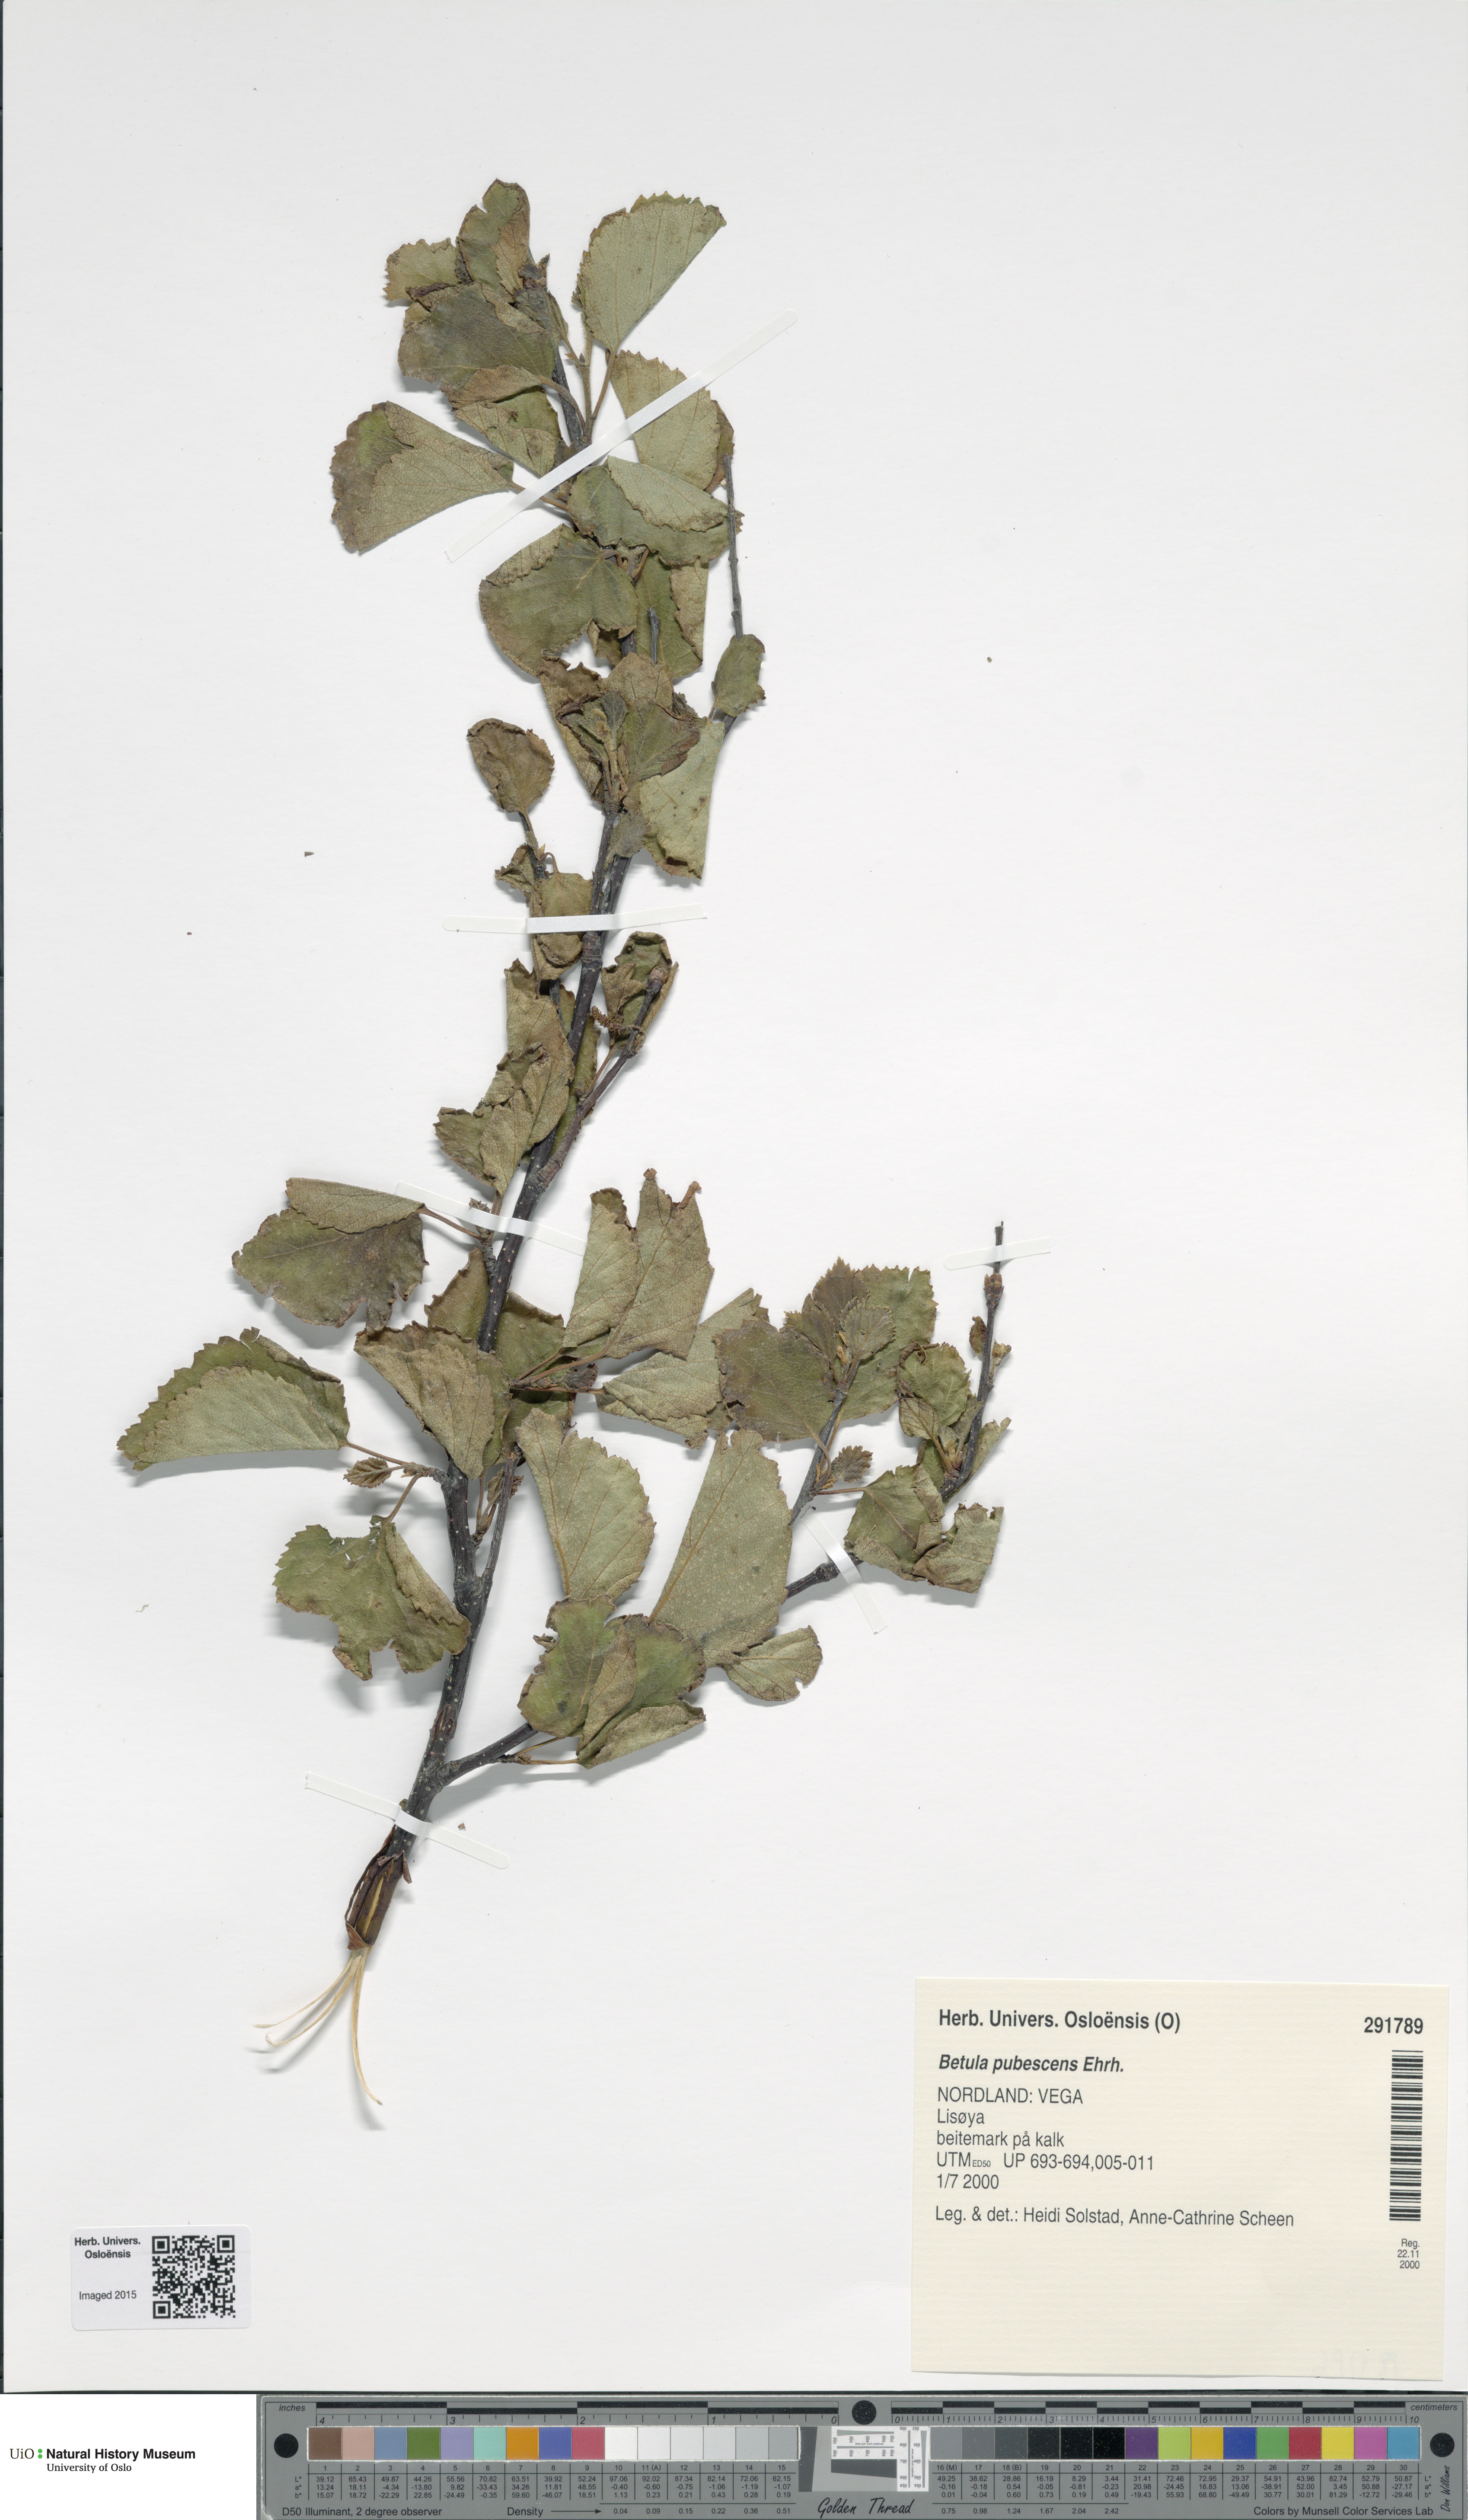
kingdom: Plantae
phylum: Tracheophyta
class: Magnoliopsida
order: Fagales
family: Betulaceae
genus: Betula
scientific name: Betula pubescens
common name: Downy birch
